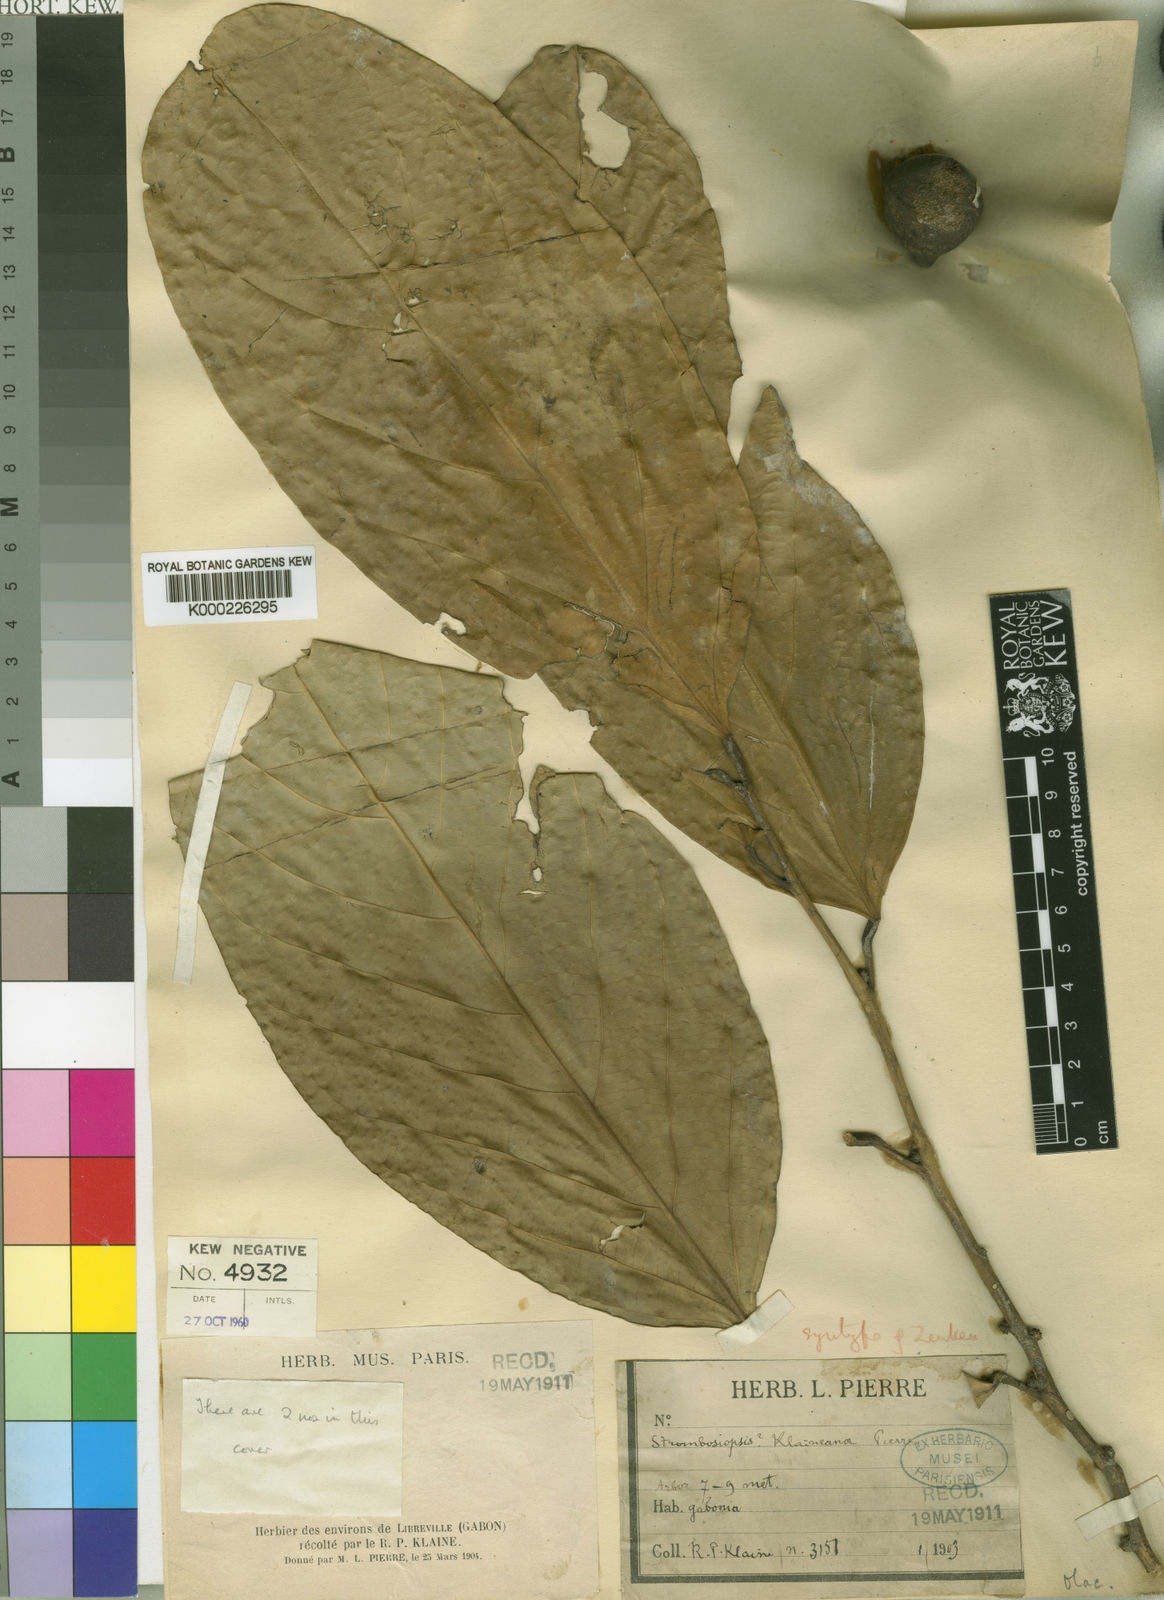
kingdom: Plantae
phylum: Tracheophyta
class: Magnoliopsida
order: Santalales
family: Strombosiaceae
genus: Diogoa
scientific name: Diogoa
